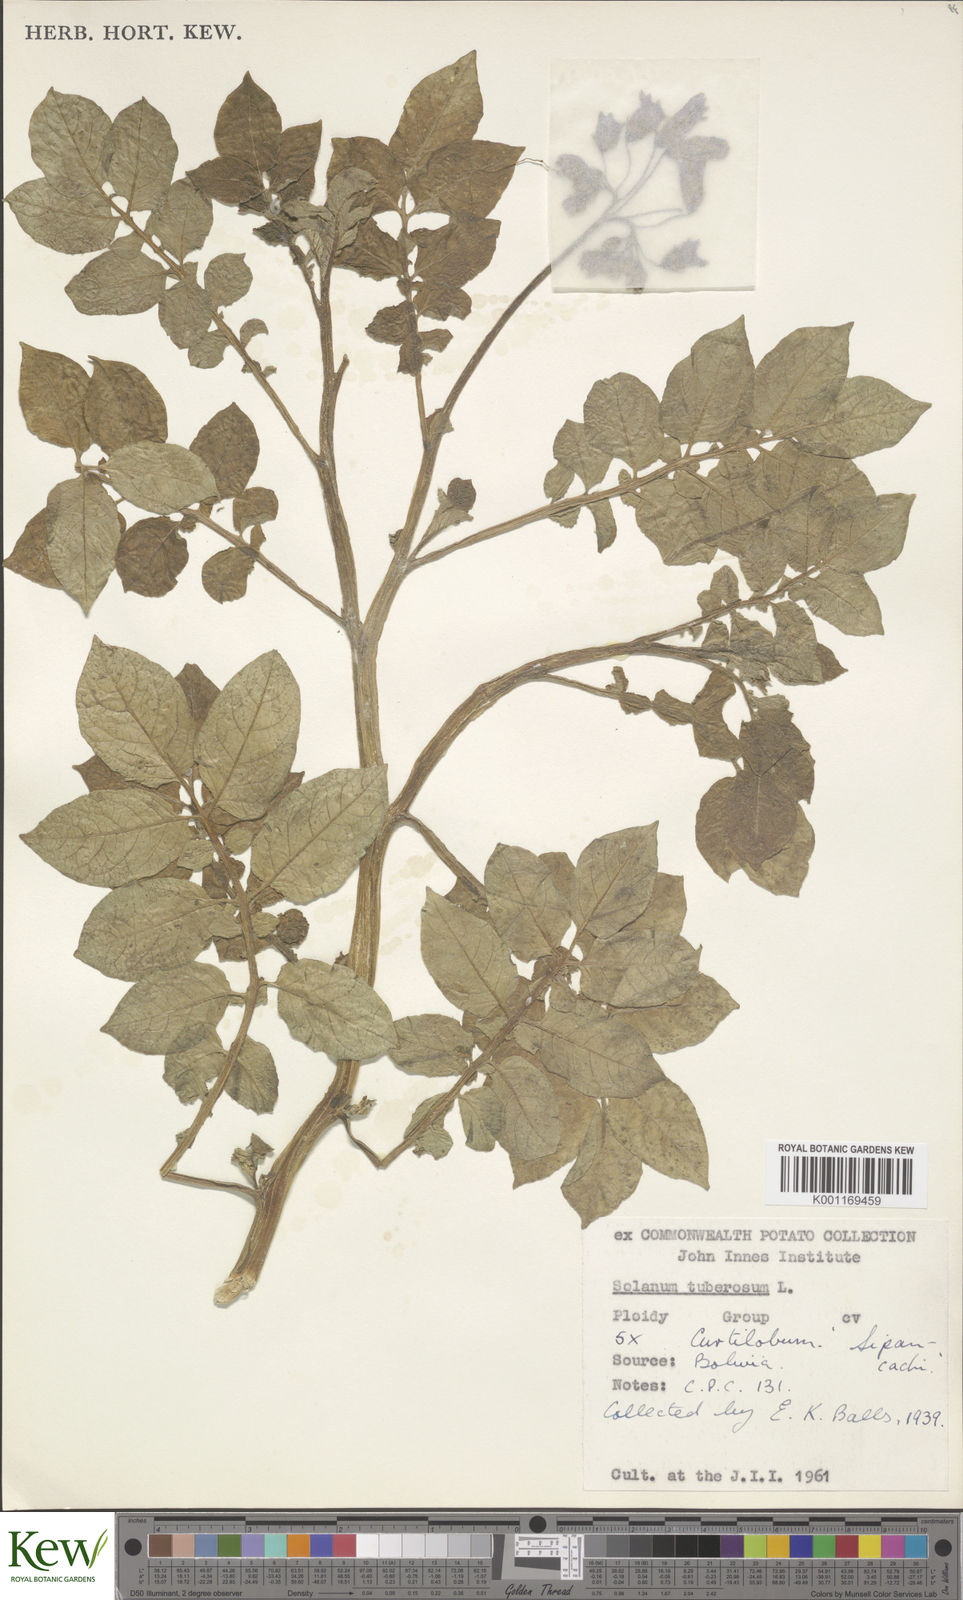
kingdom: Plantae
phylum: Tracheophyta
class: Magnoliopsida
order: Solanales
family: Solanaceae
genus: Solanum
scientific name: Solanum curtilobum
